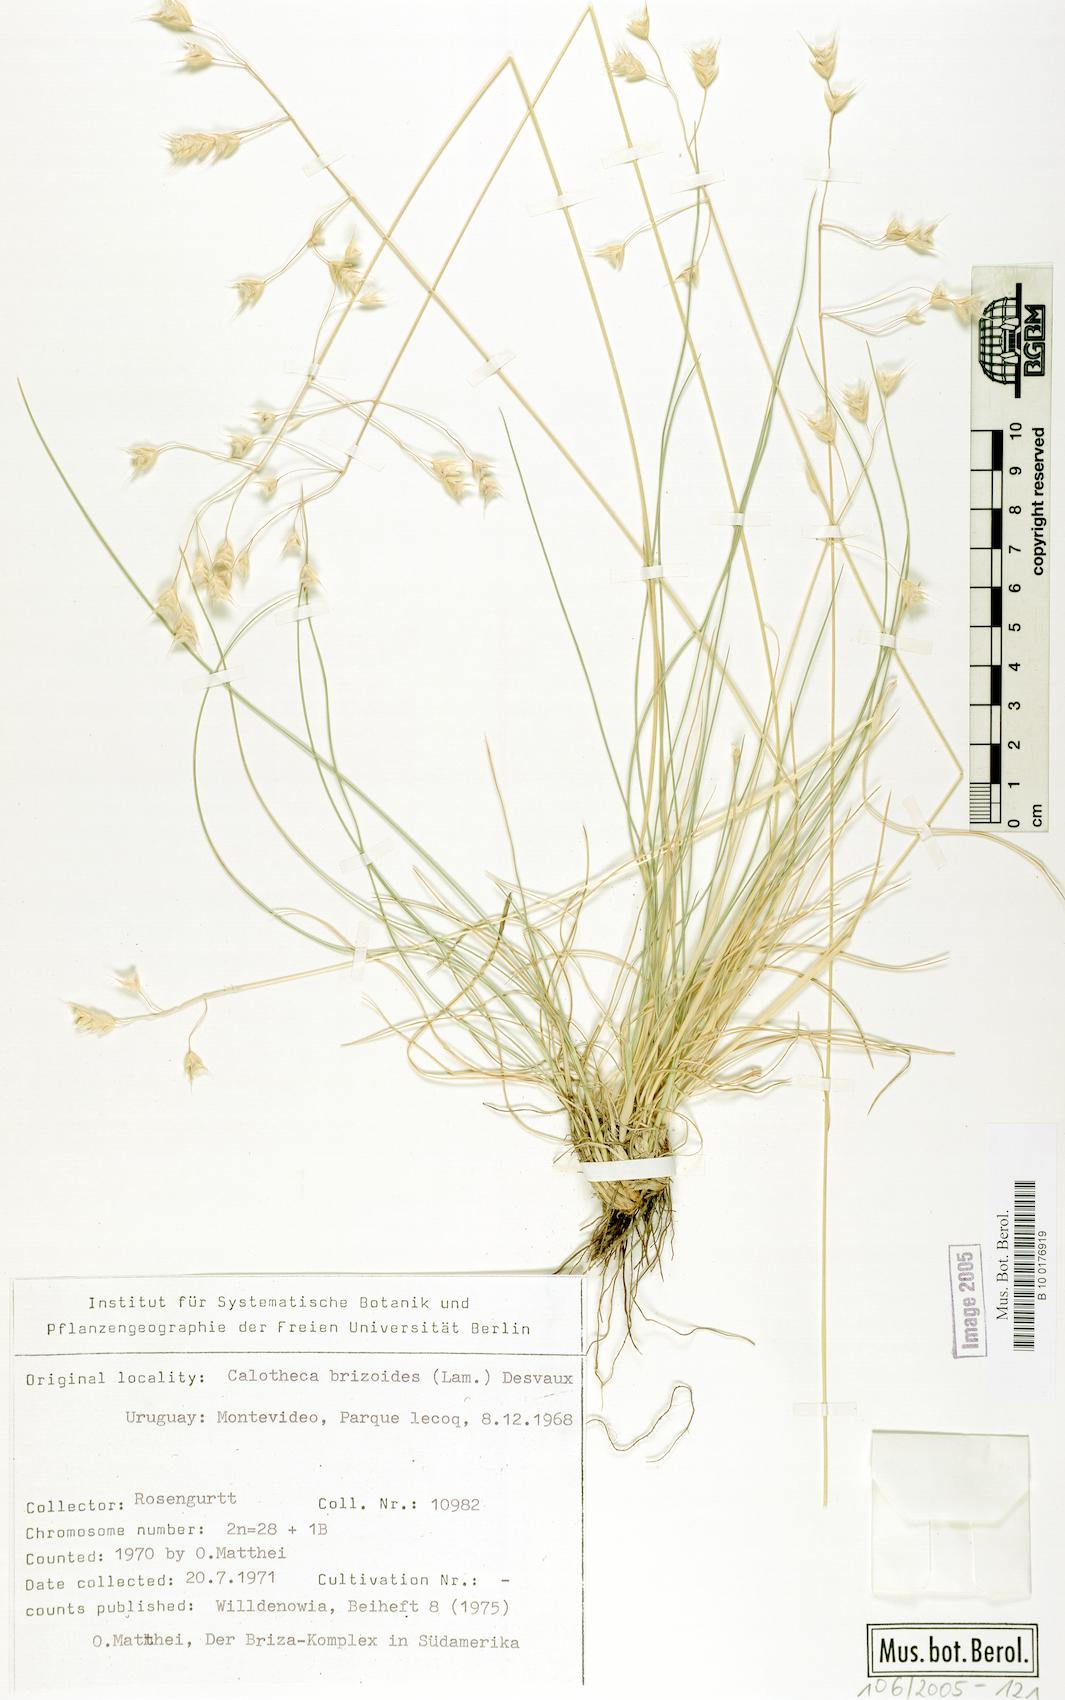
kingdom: Plantae
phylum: Tracheophyta
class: Liliopsida
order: Poales
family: Poaceae
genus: Calotheca
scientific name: Calotheca brizoides
